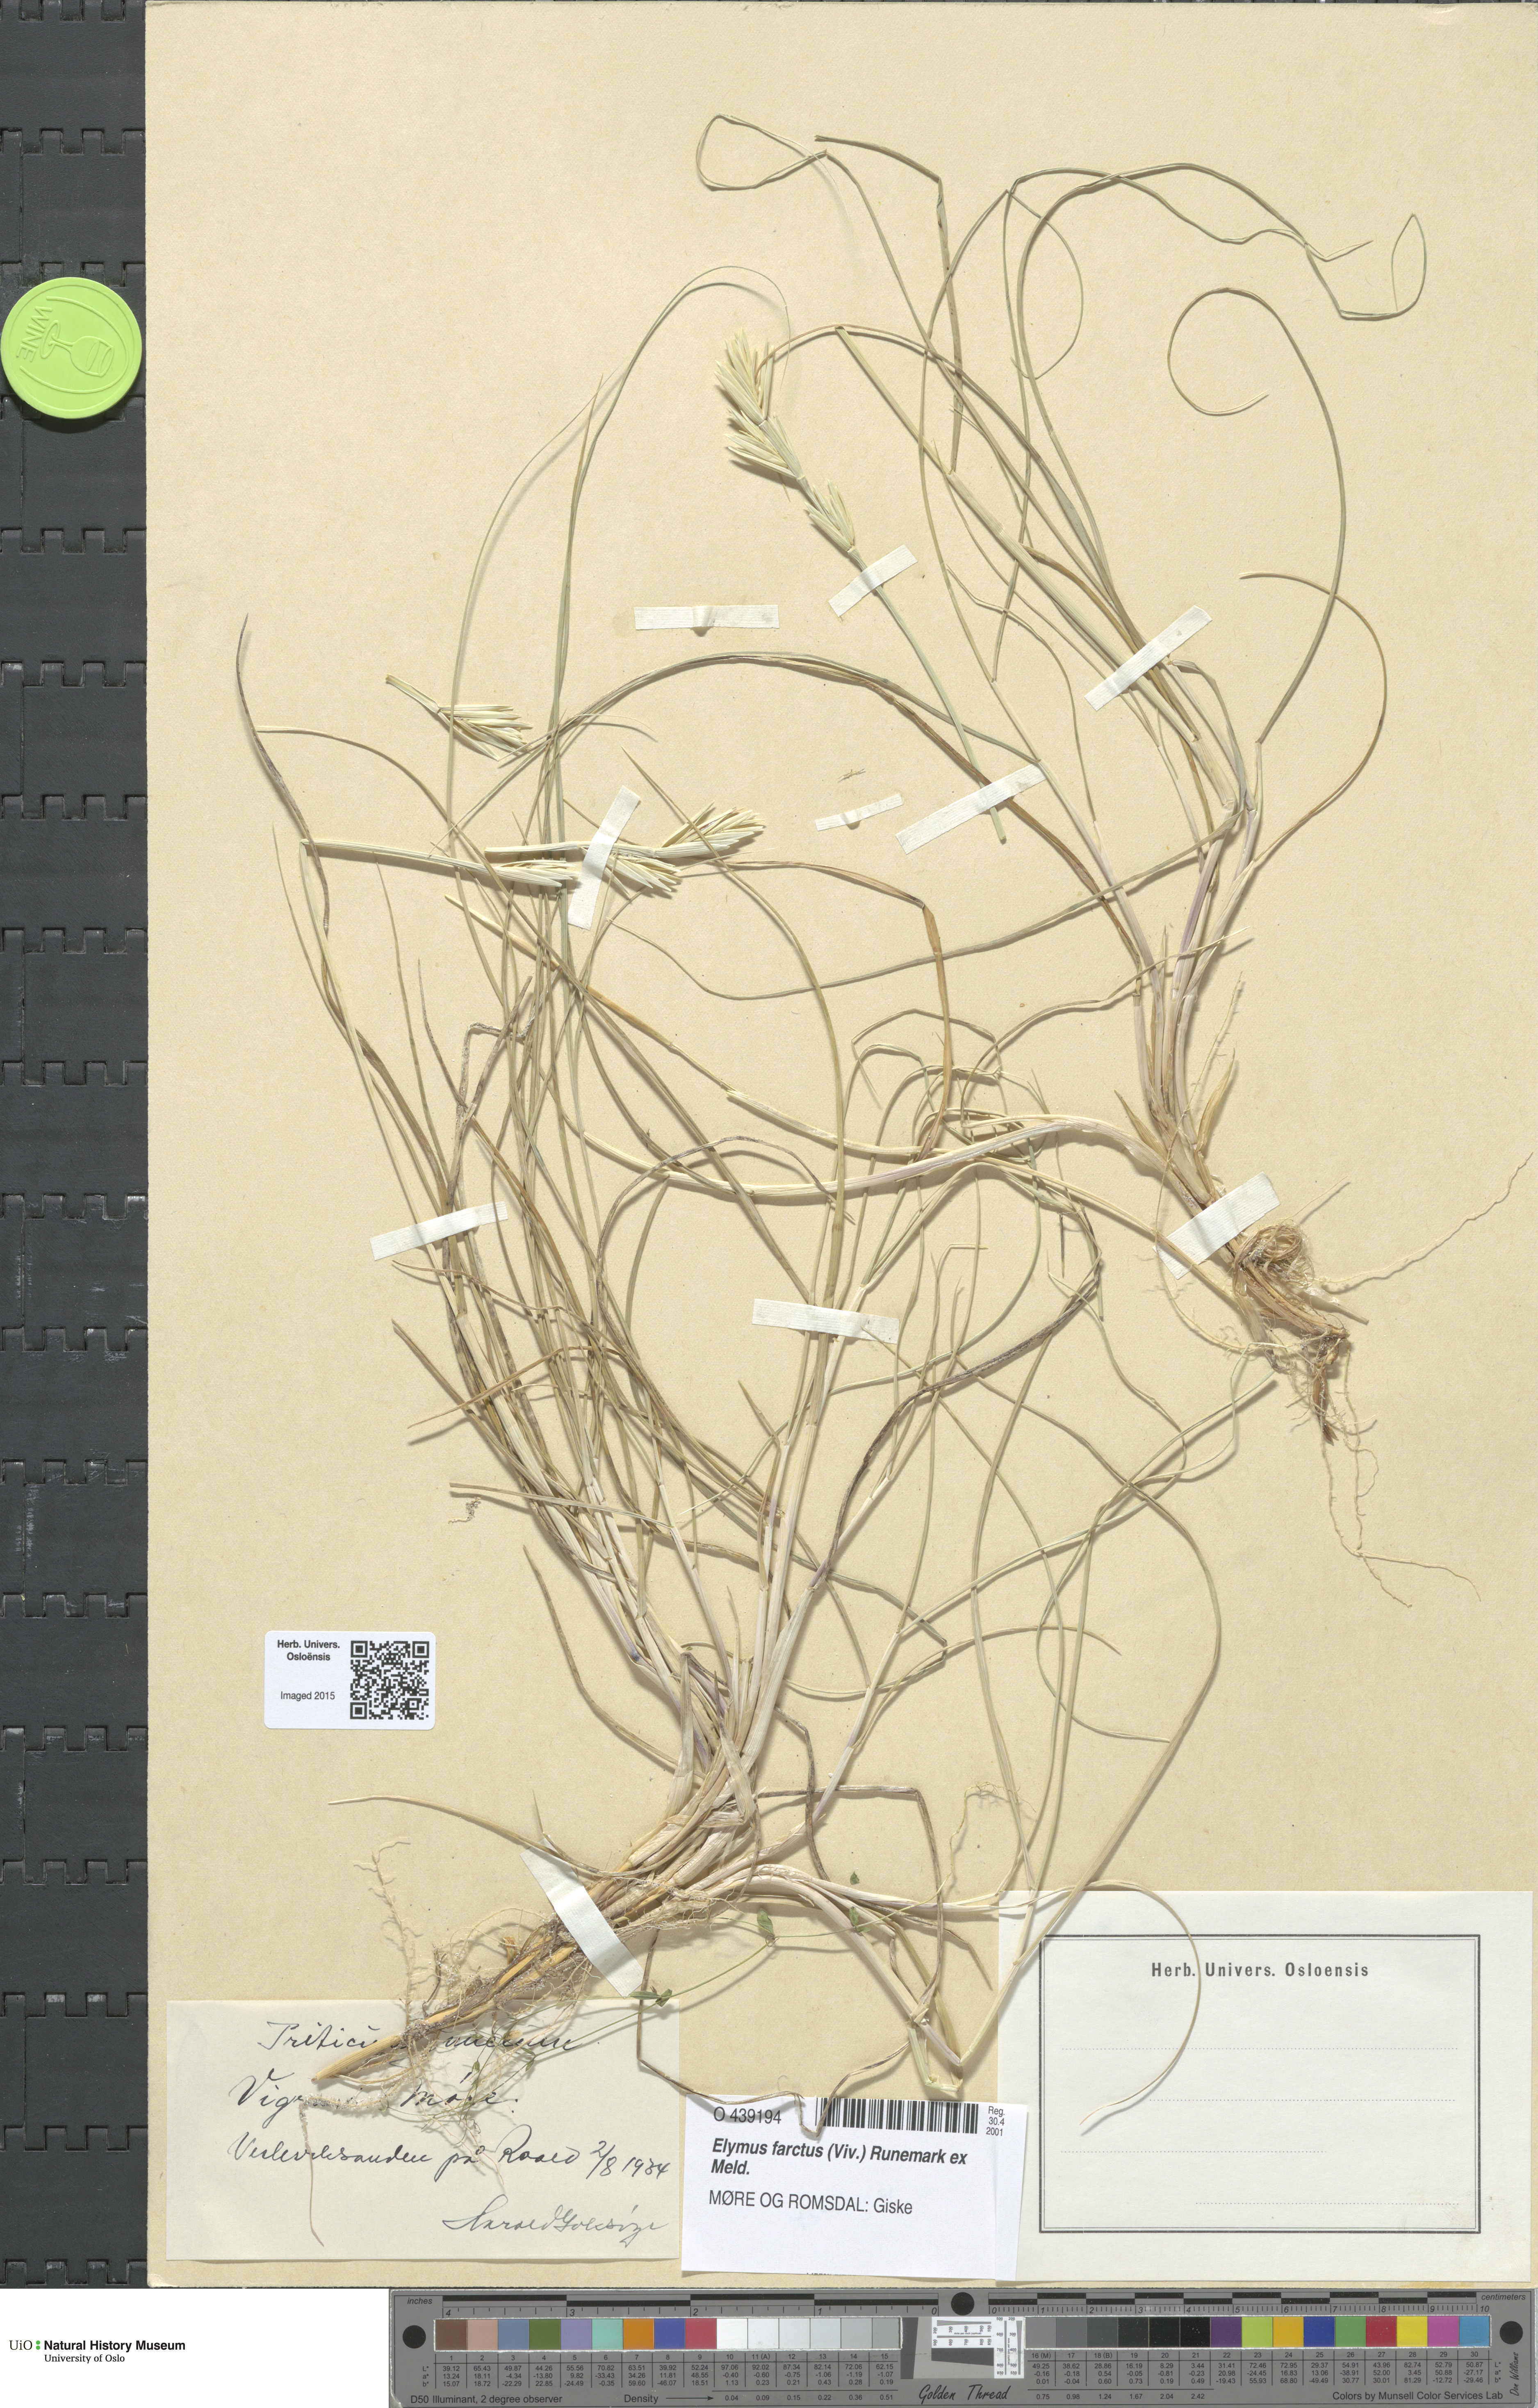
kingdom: Plantae
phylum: Tracheophyta
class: Liliopsida
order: Poales
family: Poaceae
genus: Thinopyrum
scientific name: Thinopyrum junceum
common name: Russian wheatgrass
